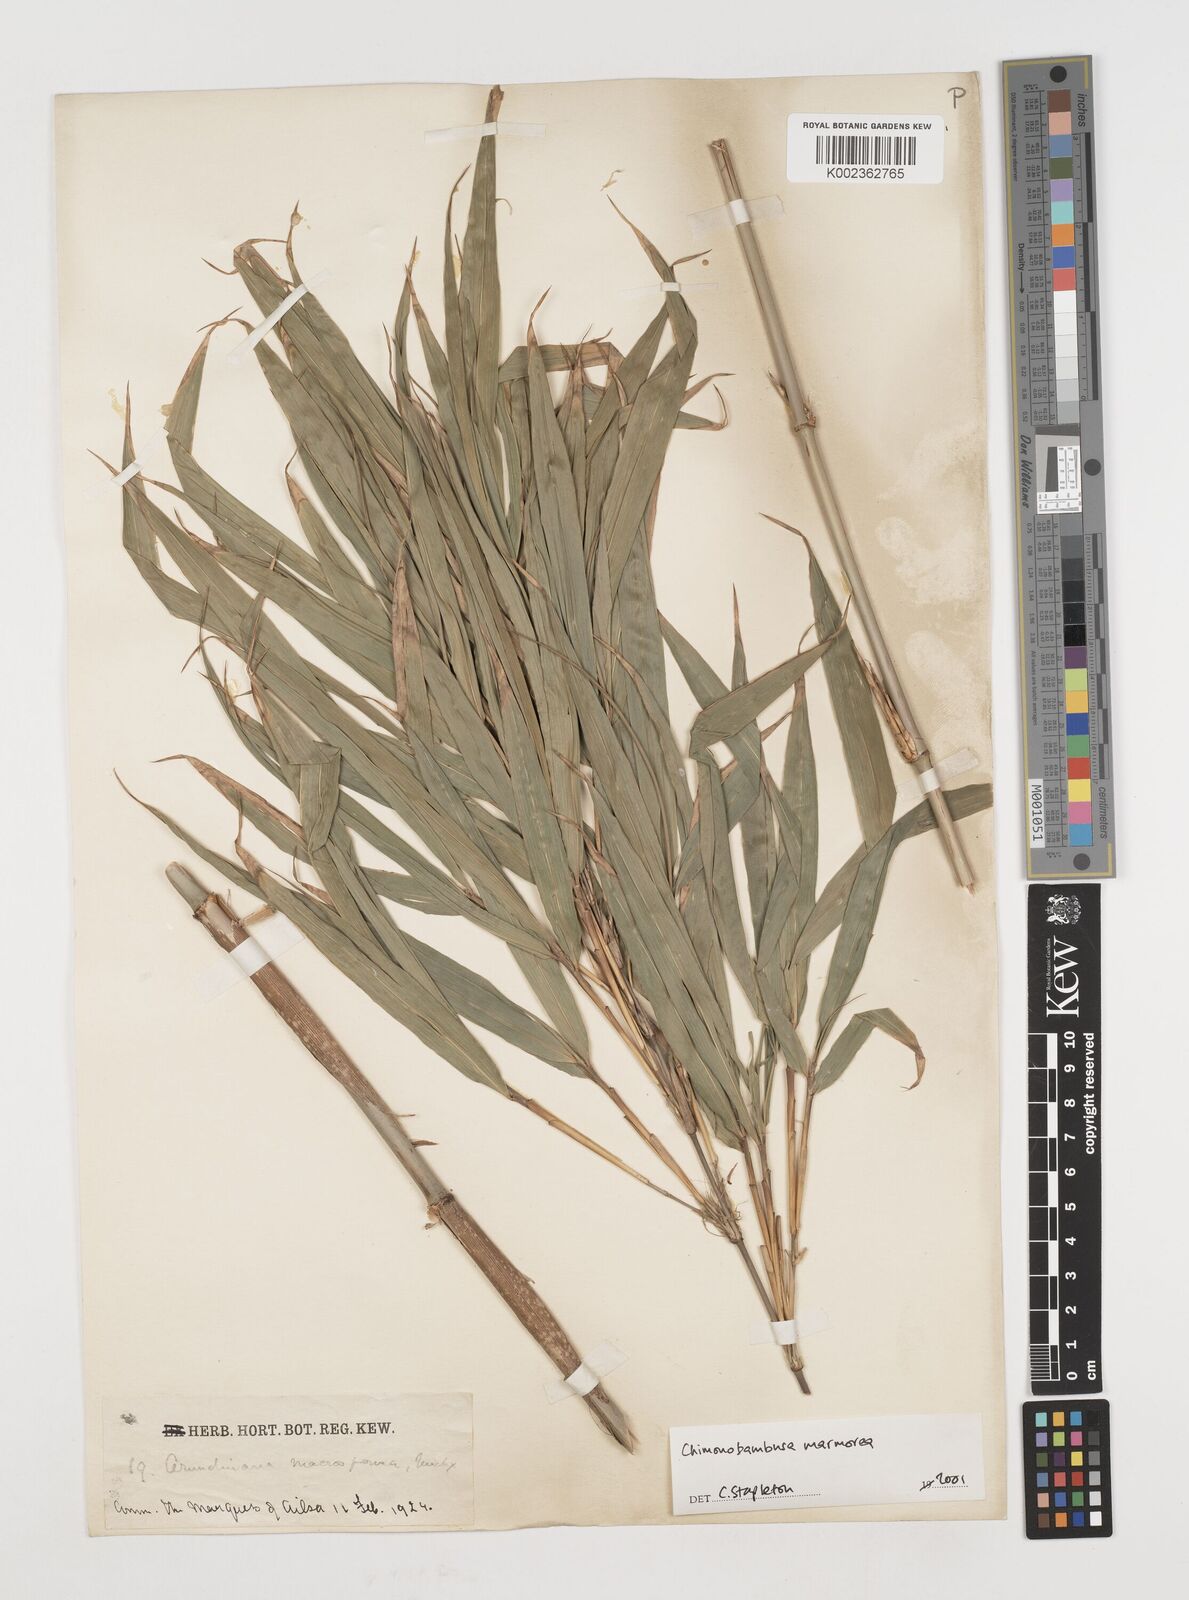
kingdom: Plantae
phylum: Tracheophyta
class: Liliopsida
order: Poales
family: Poaceae
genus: Chimonobambusa
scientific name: Chimonobambusa marmorea
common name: Marbled bamboo
